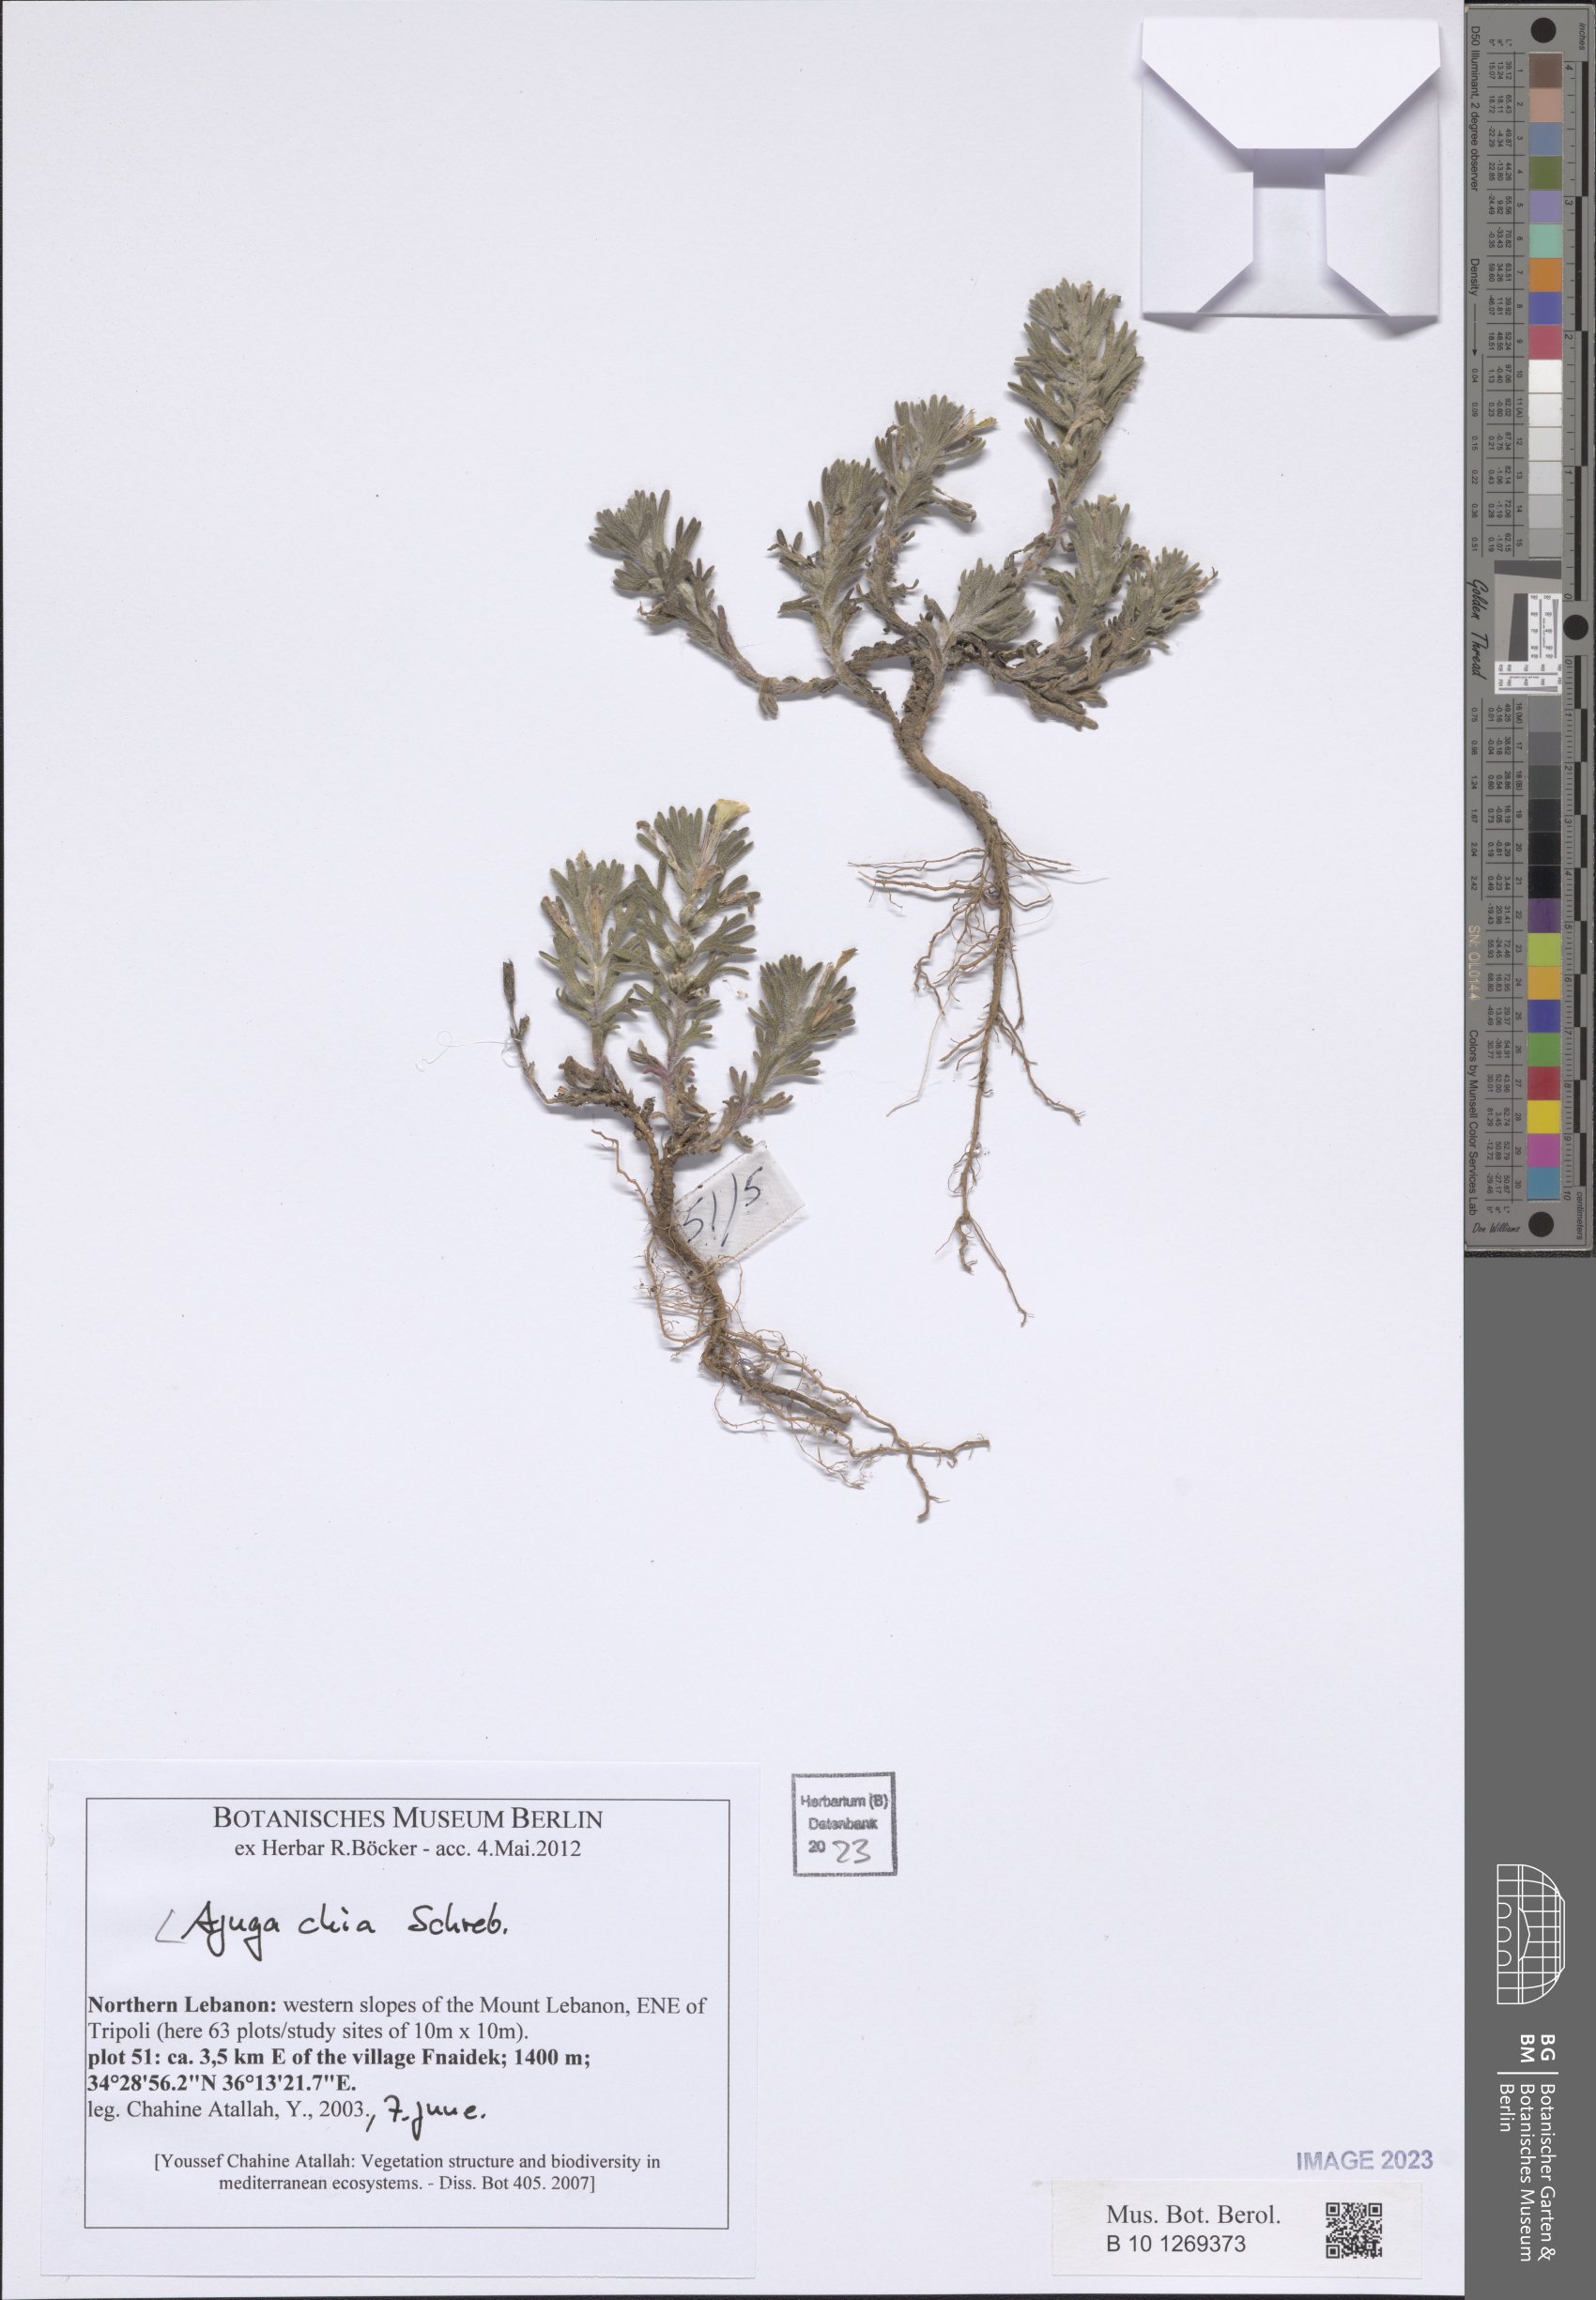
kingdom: Plantae
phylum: Tracheophyta
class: Magnoliopsida
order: Lamiales
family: Lamiaceae
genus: Ajuga
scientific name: Ajuga chamaepitys
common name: Ground-pine
